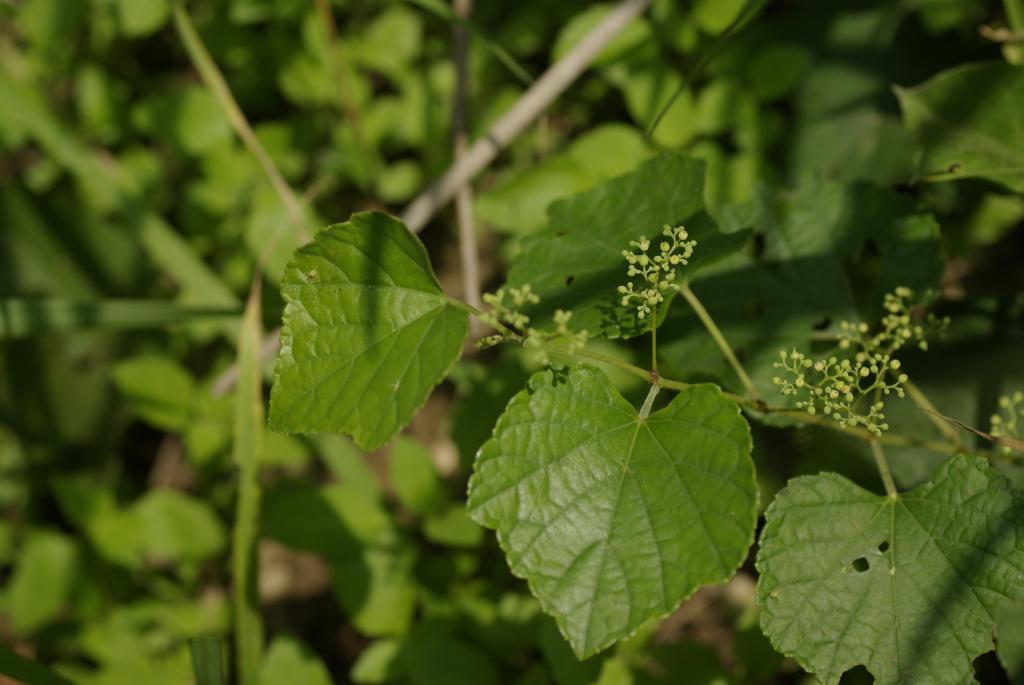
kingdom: Plantae
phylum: Tracheophyta
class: Magnoliopsida
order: Vitales
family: Vitaceae
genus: Ampelopsis
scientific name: Ampelopsis glandulosa
